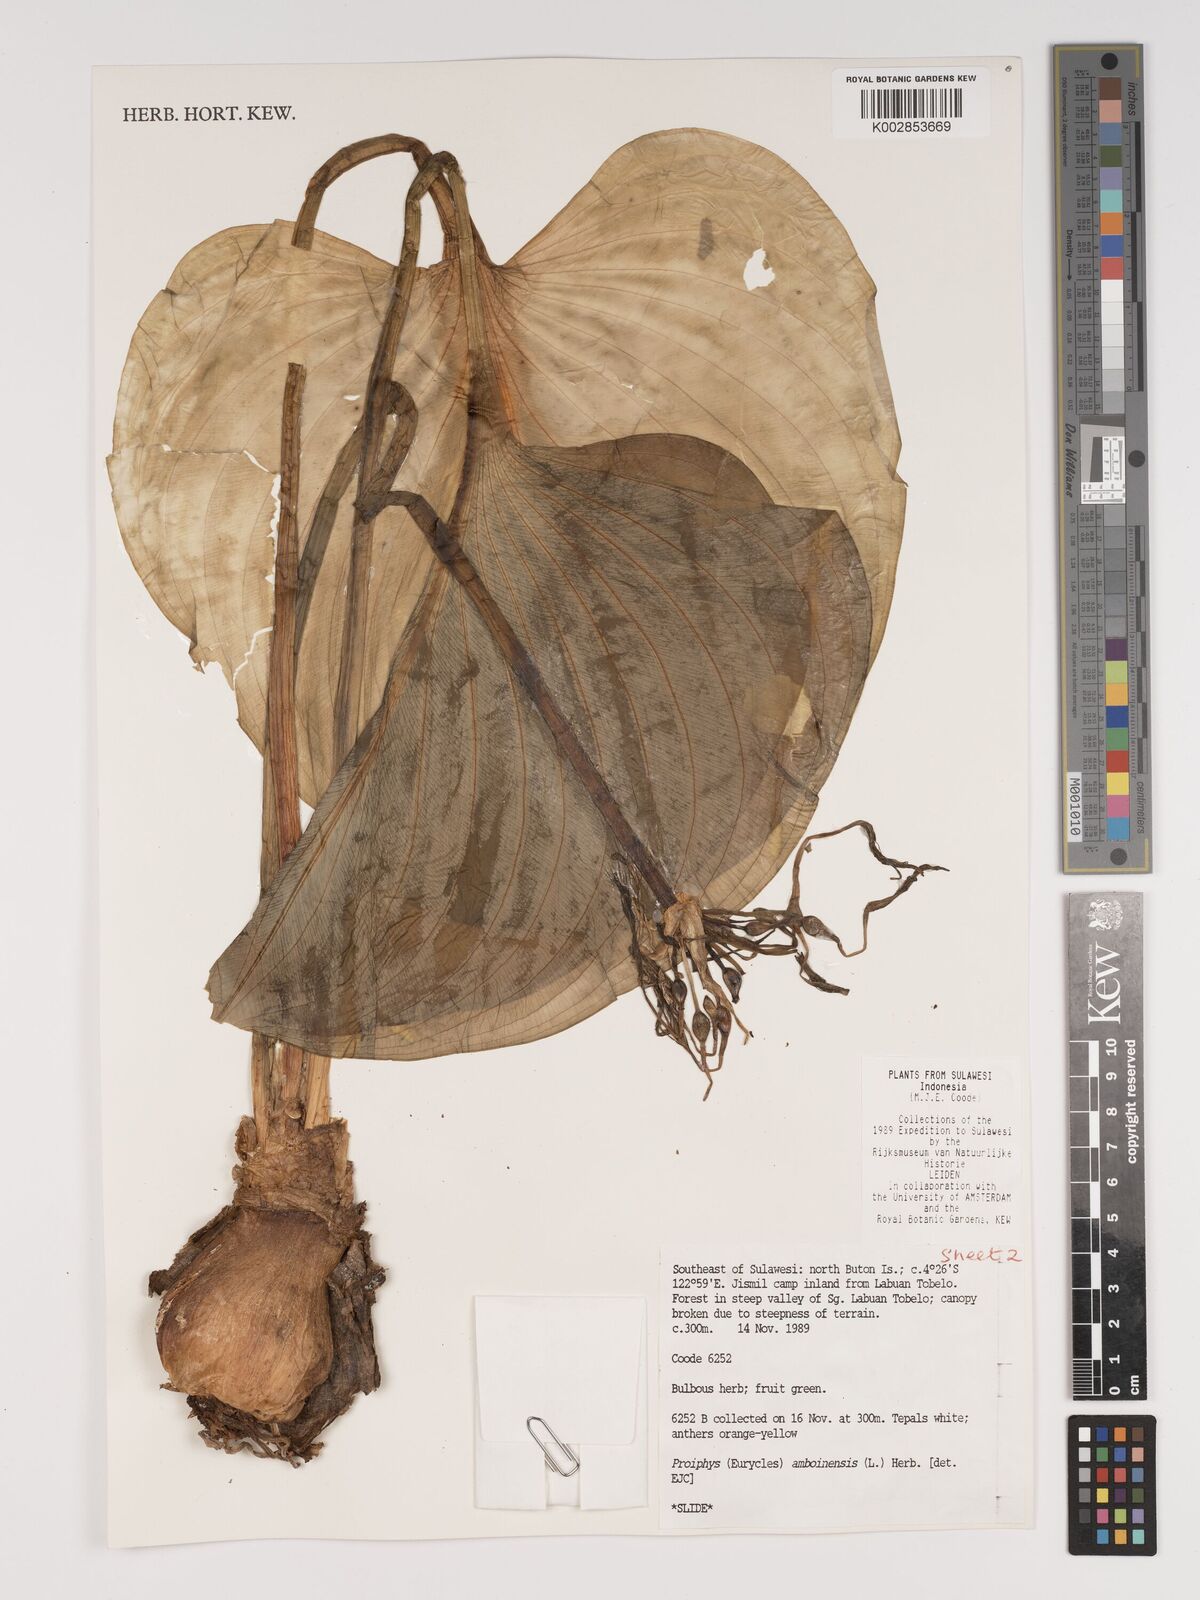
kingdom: Plantae
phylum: Tracheophyta
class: Liliopsida
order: Asparagales
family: Amaryllidaceae
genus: Proiphys
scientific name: Proiphys amboinensis
